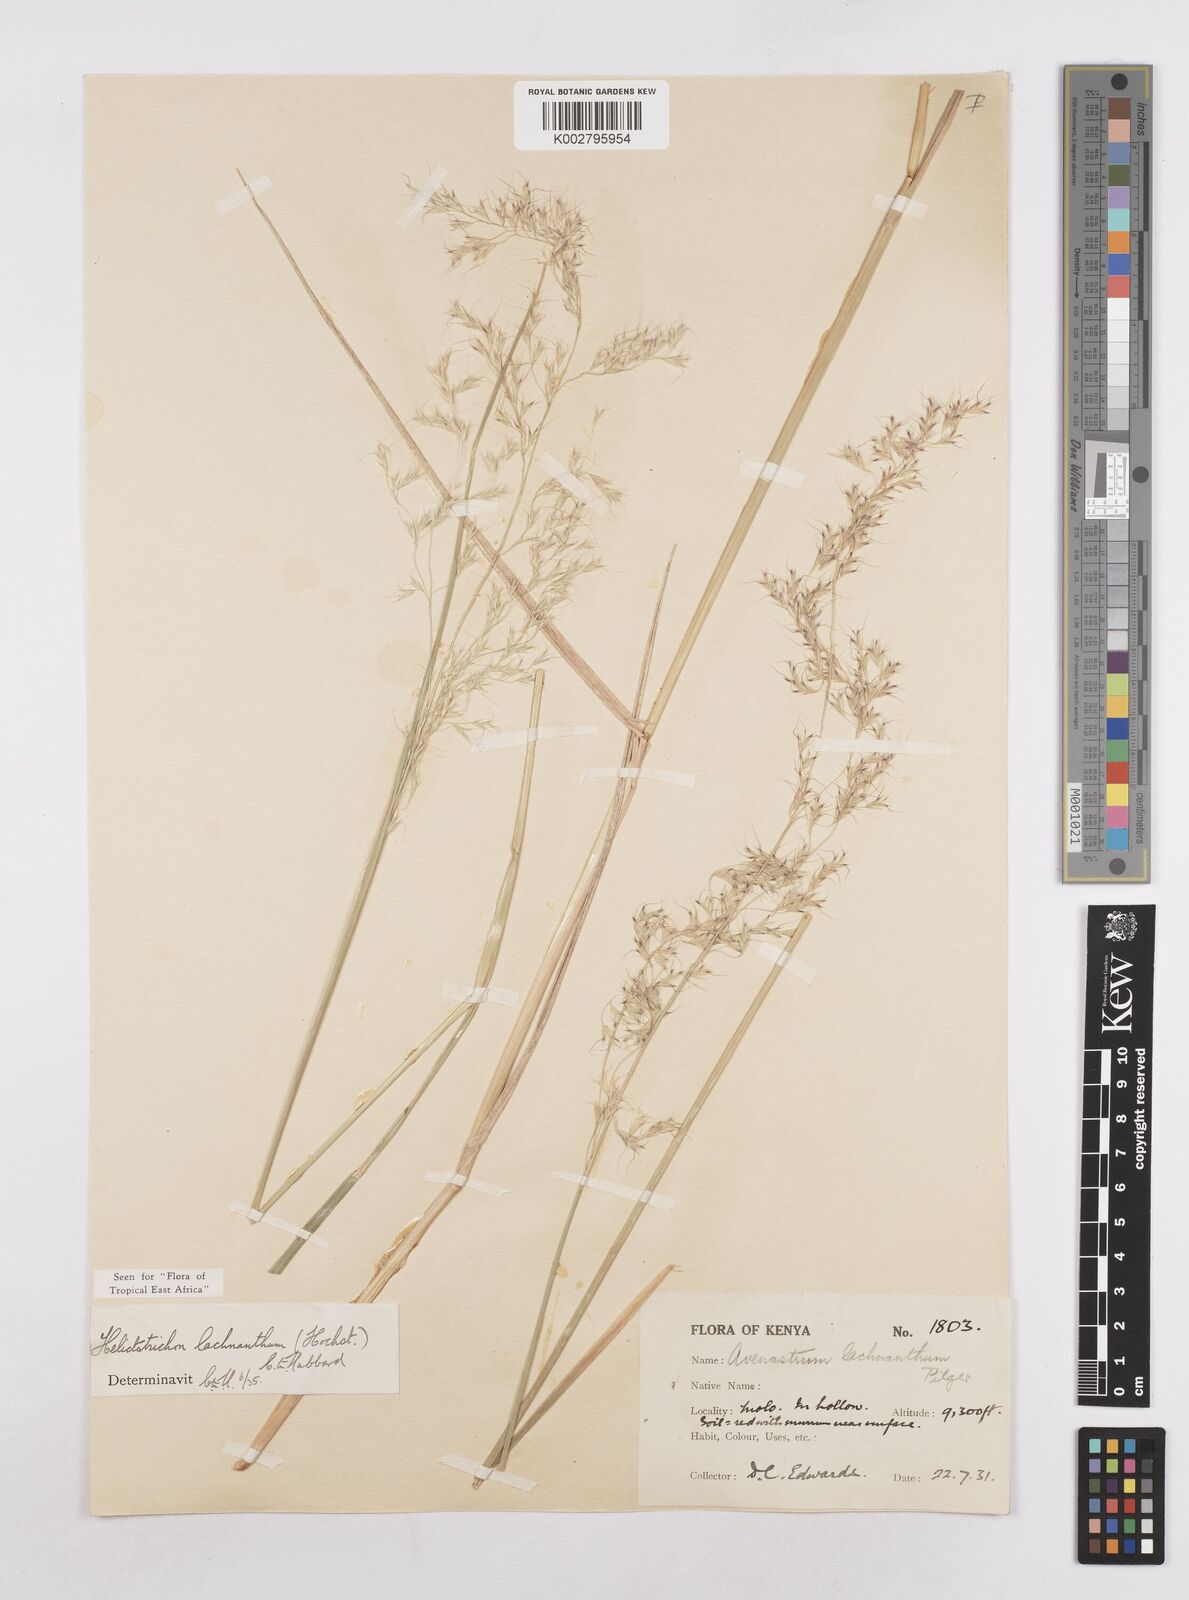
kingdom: Plantae
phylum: Tracheophyta
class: Liliopsida
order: Poales
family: Poaceae
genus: Trisetopsis
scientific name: Trisetopsis lachnantha
